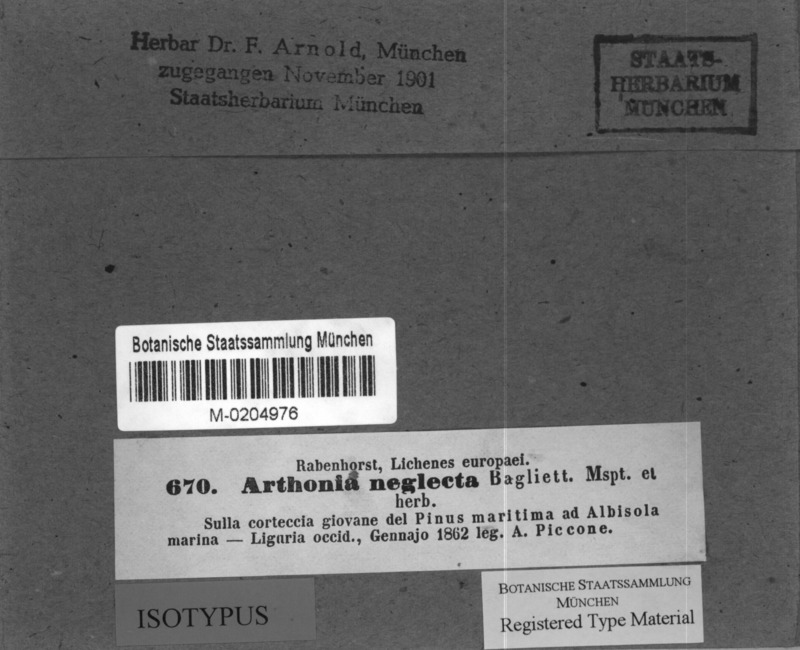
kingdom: Fungi
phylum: Ascomycota
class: Arthoniomycetes
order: Arthoniales
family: Arthoniaceae
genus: Naevia
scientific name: Naevia pinastri
